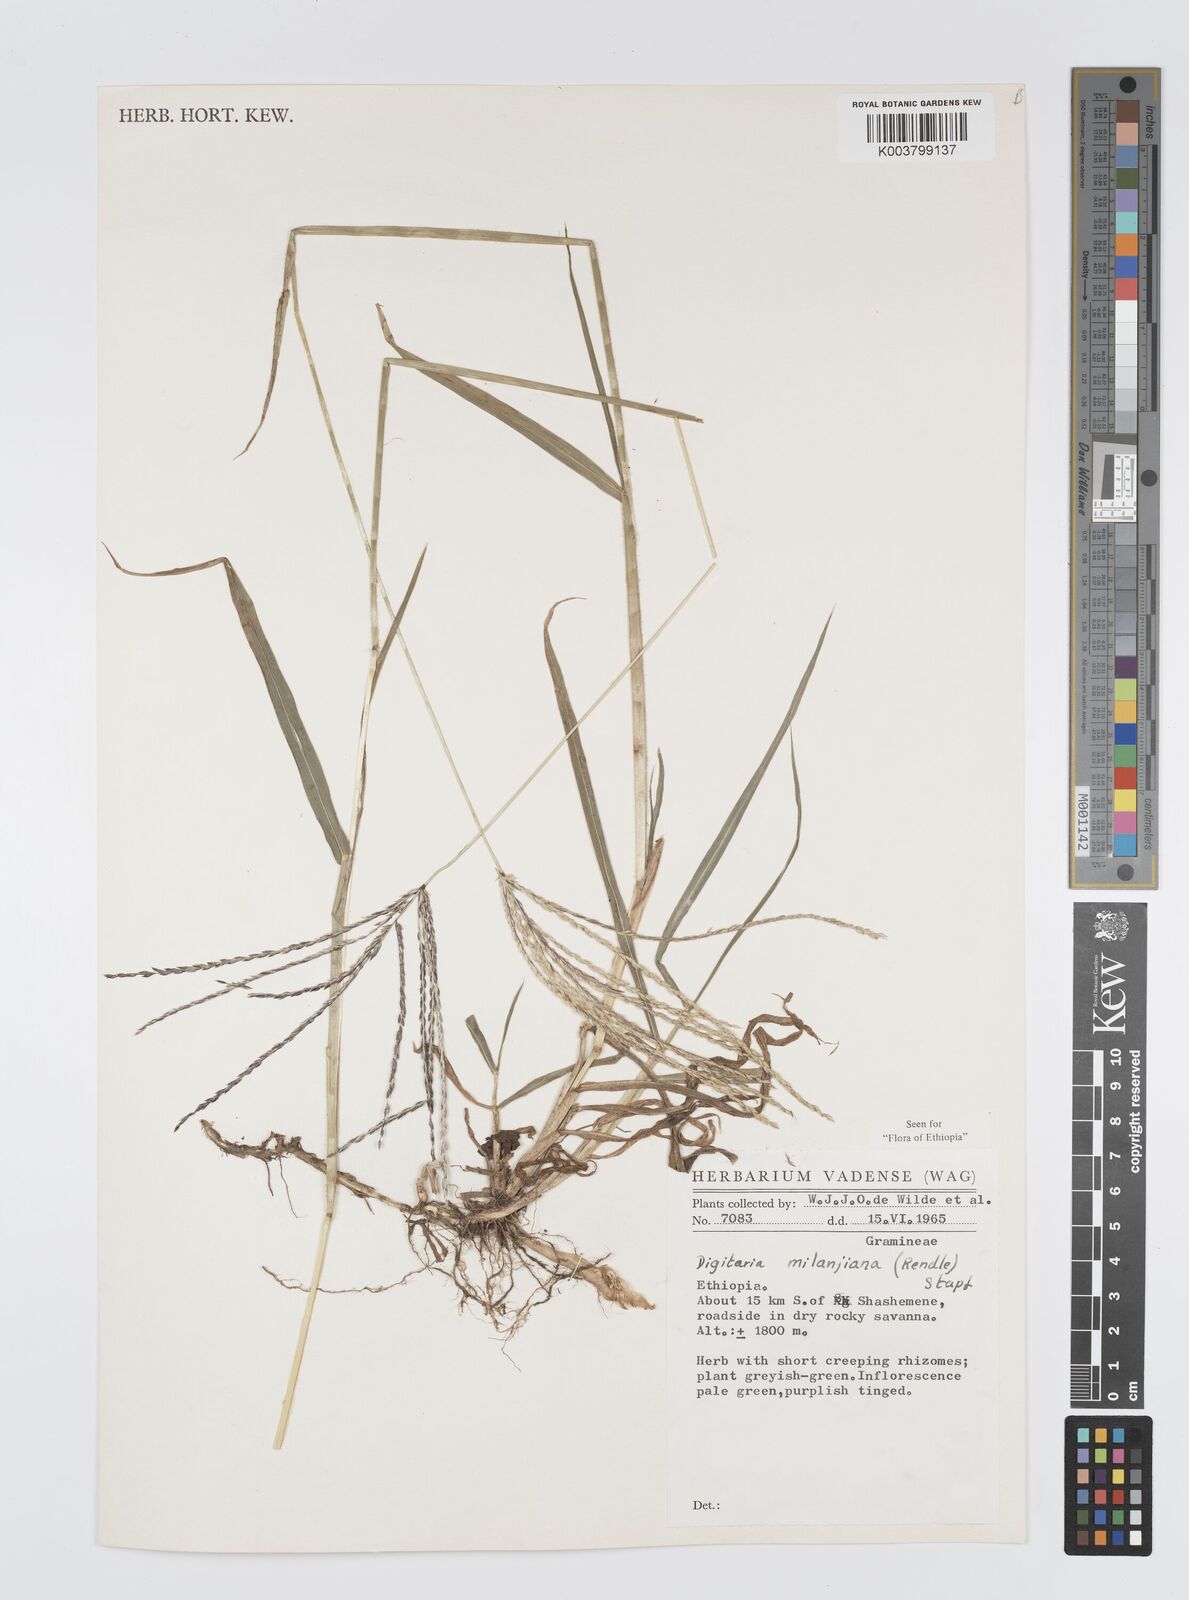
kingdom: Plantae
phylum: Tracheophyta
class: Liliopsida
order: Poales
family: Poaceae
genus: Digitaria
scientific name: Digitaria milanjiana
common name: Madagascar crabgrass
